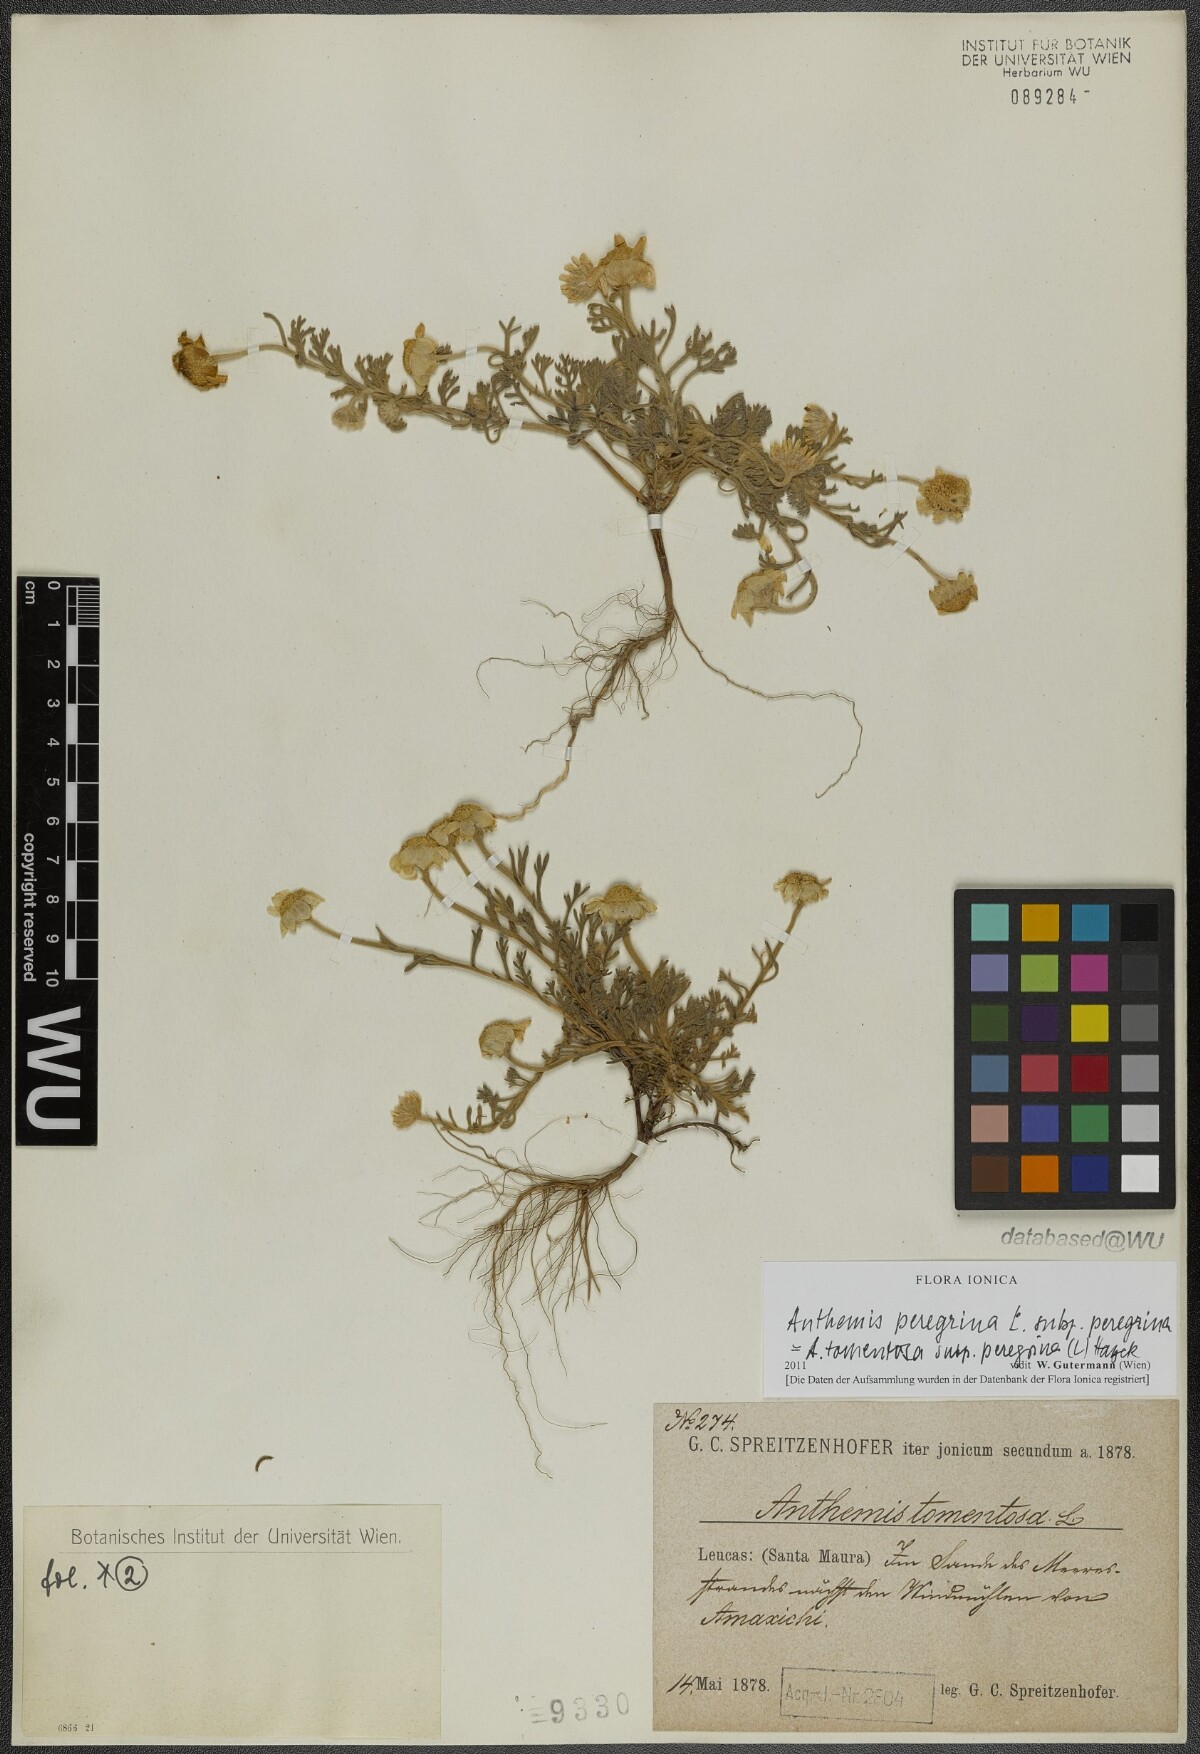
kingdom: Plantae
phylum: Tracheophyta
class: Magnoliopsida
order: Asterales
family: Asteraceae
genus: Anthemis
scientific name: Anthemis tomentosa
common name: Woolly chamomile
